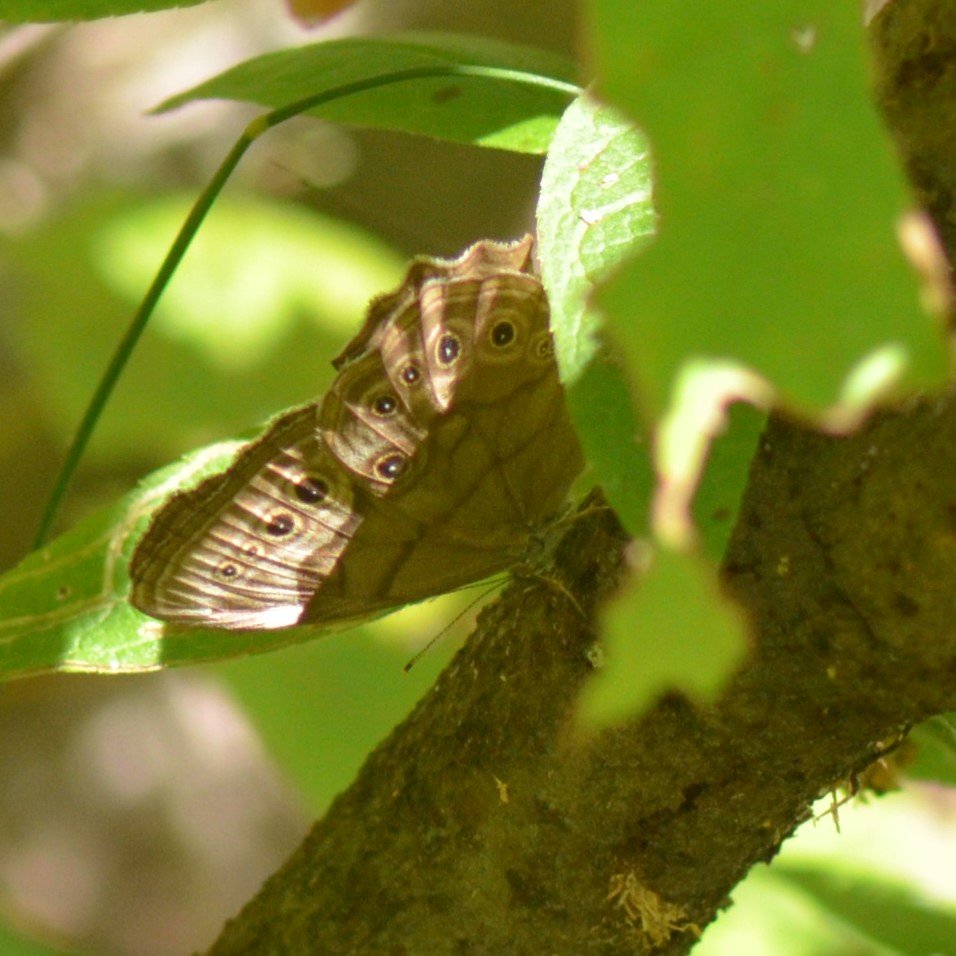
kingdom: Animalia
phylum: Arthropoda
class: Insecta
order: Lepidoptera
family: Nymphalidae
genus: Lethe
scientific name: Lethe anthedon
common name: Northern Pearly-Eye
